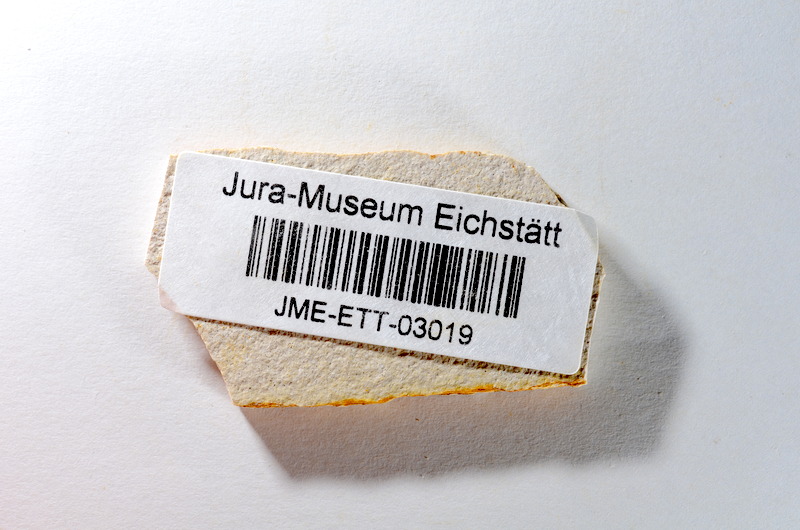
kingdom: Animalia
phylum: Chordata
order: Salmoniformes
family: Orthogonikleithridae
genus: Orthogonikleithrus
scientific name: Orthogonikleithrus hoelli
